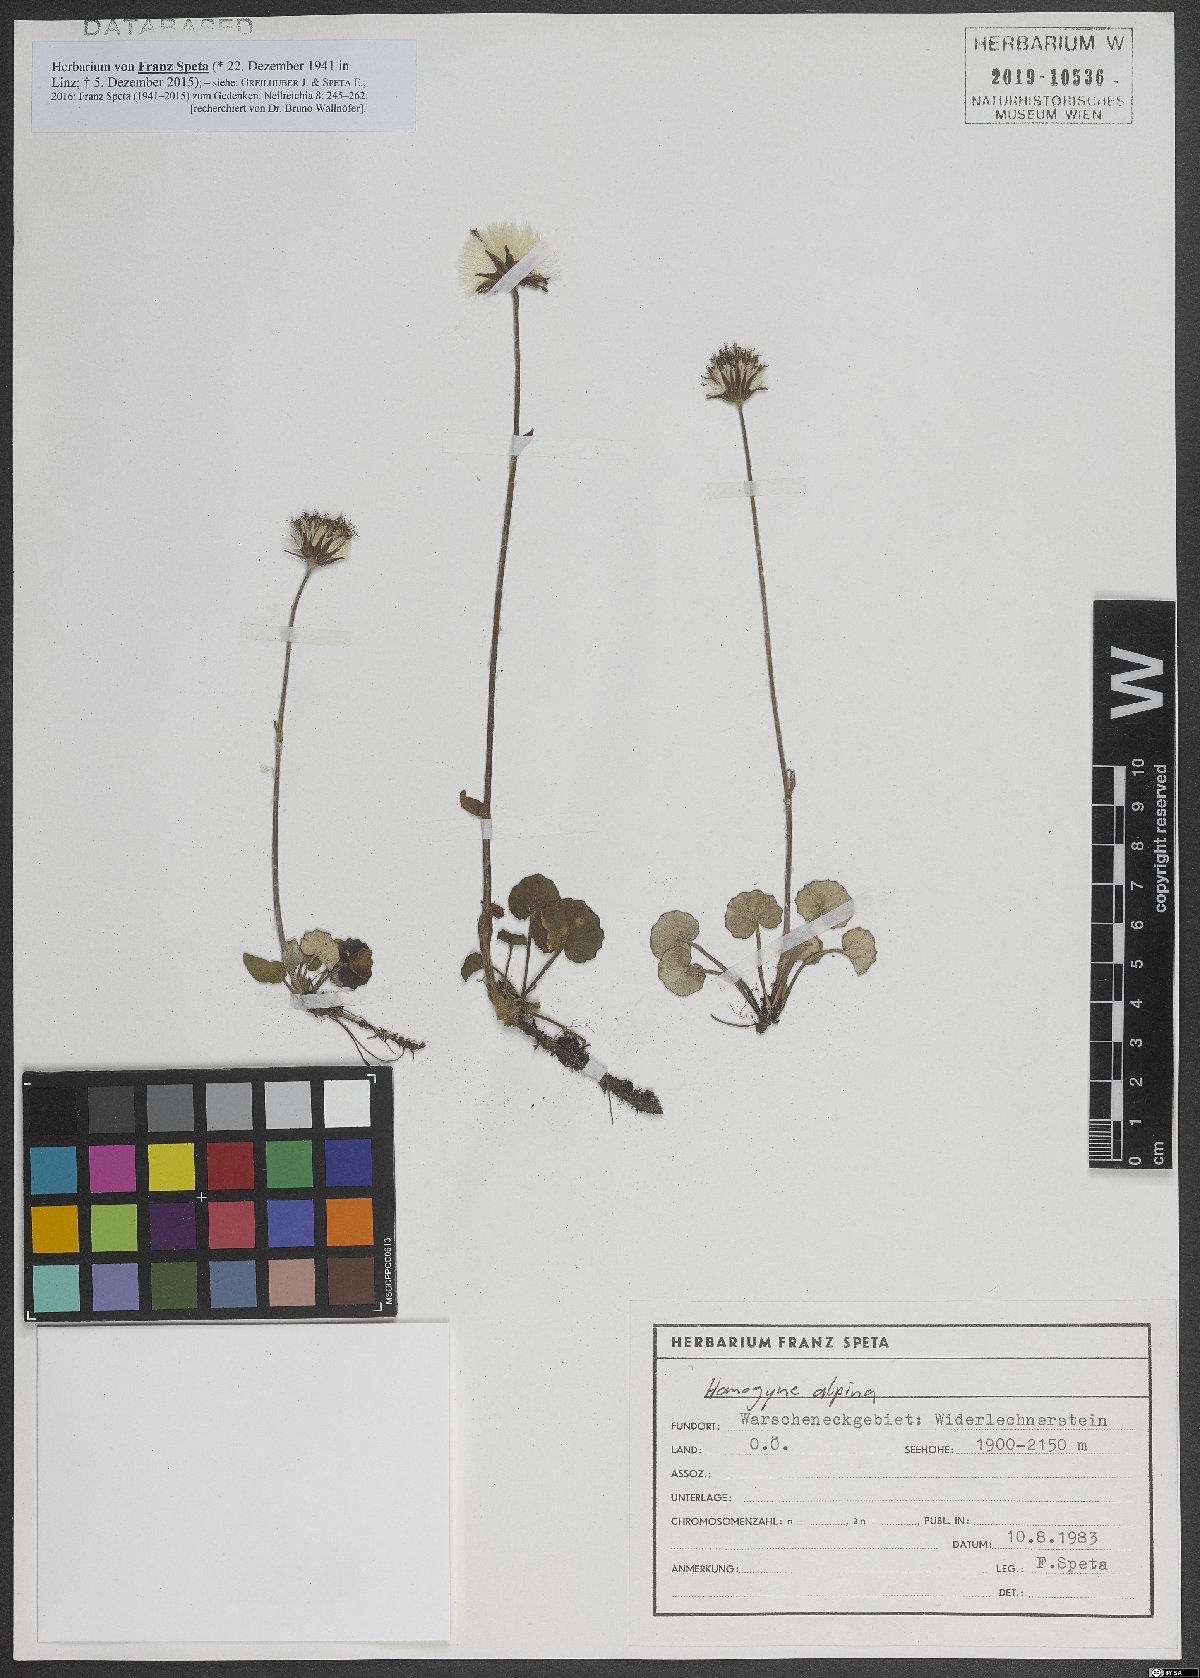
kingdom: Plantae
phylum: Tracheophyta
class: Magnoliopsida
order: Asterales
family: Asteraceae
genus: Homogyne
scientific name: Homogyne alpina
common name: Purple colt's-foot
